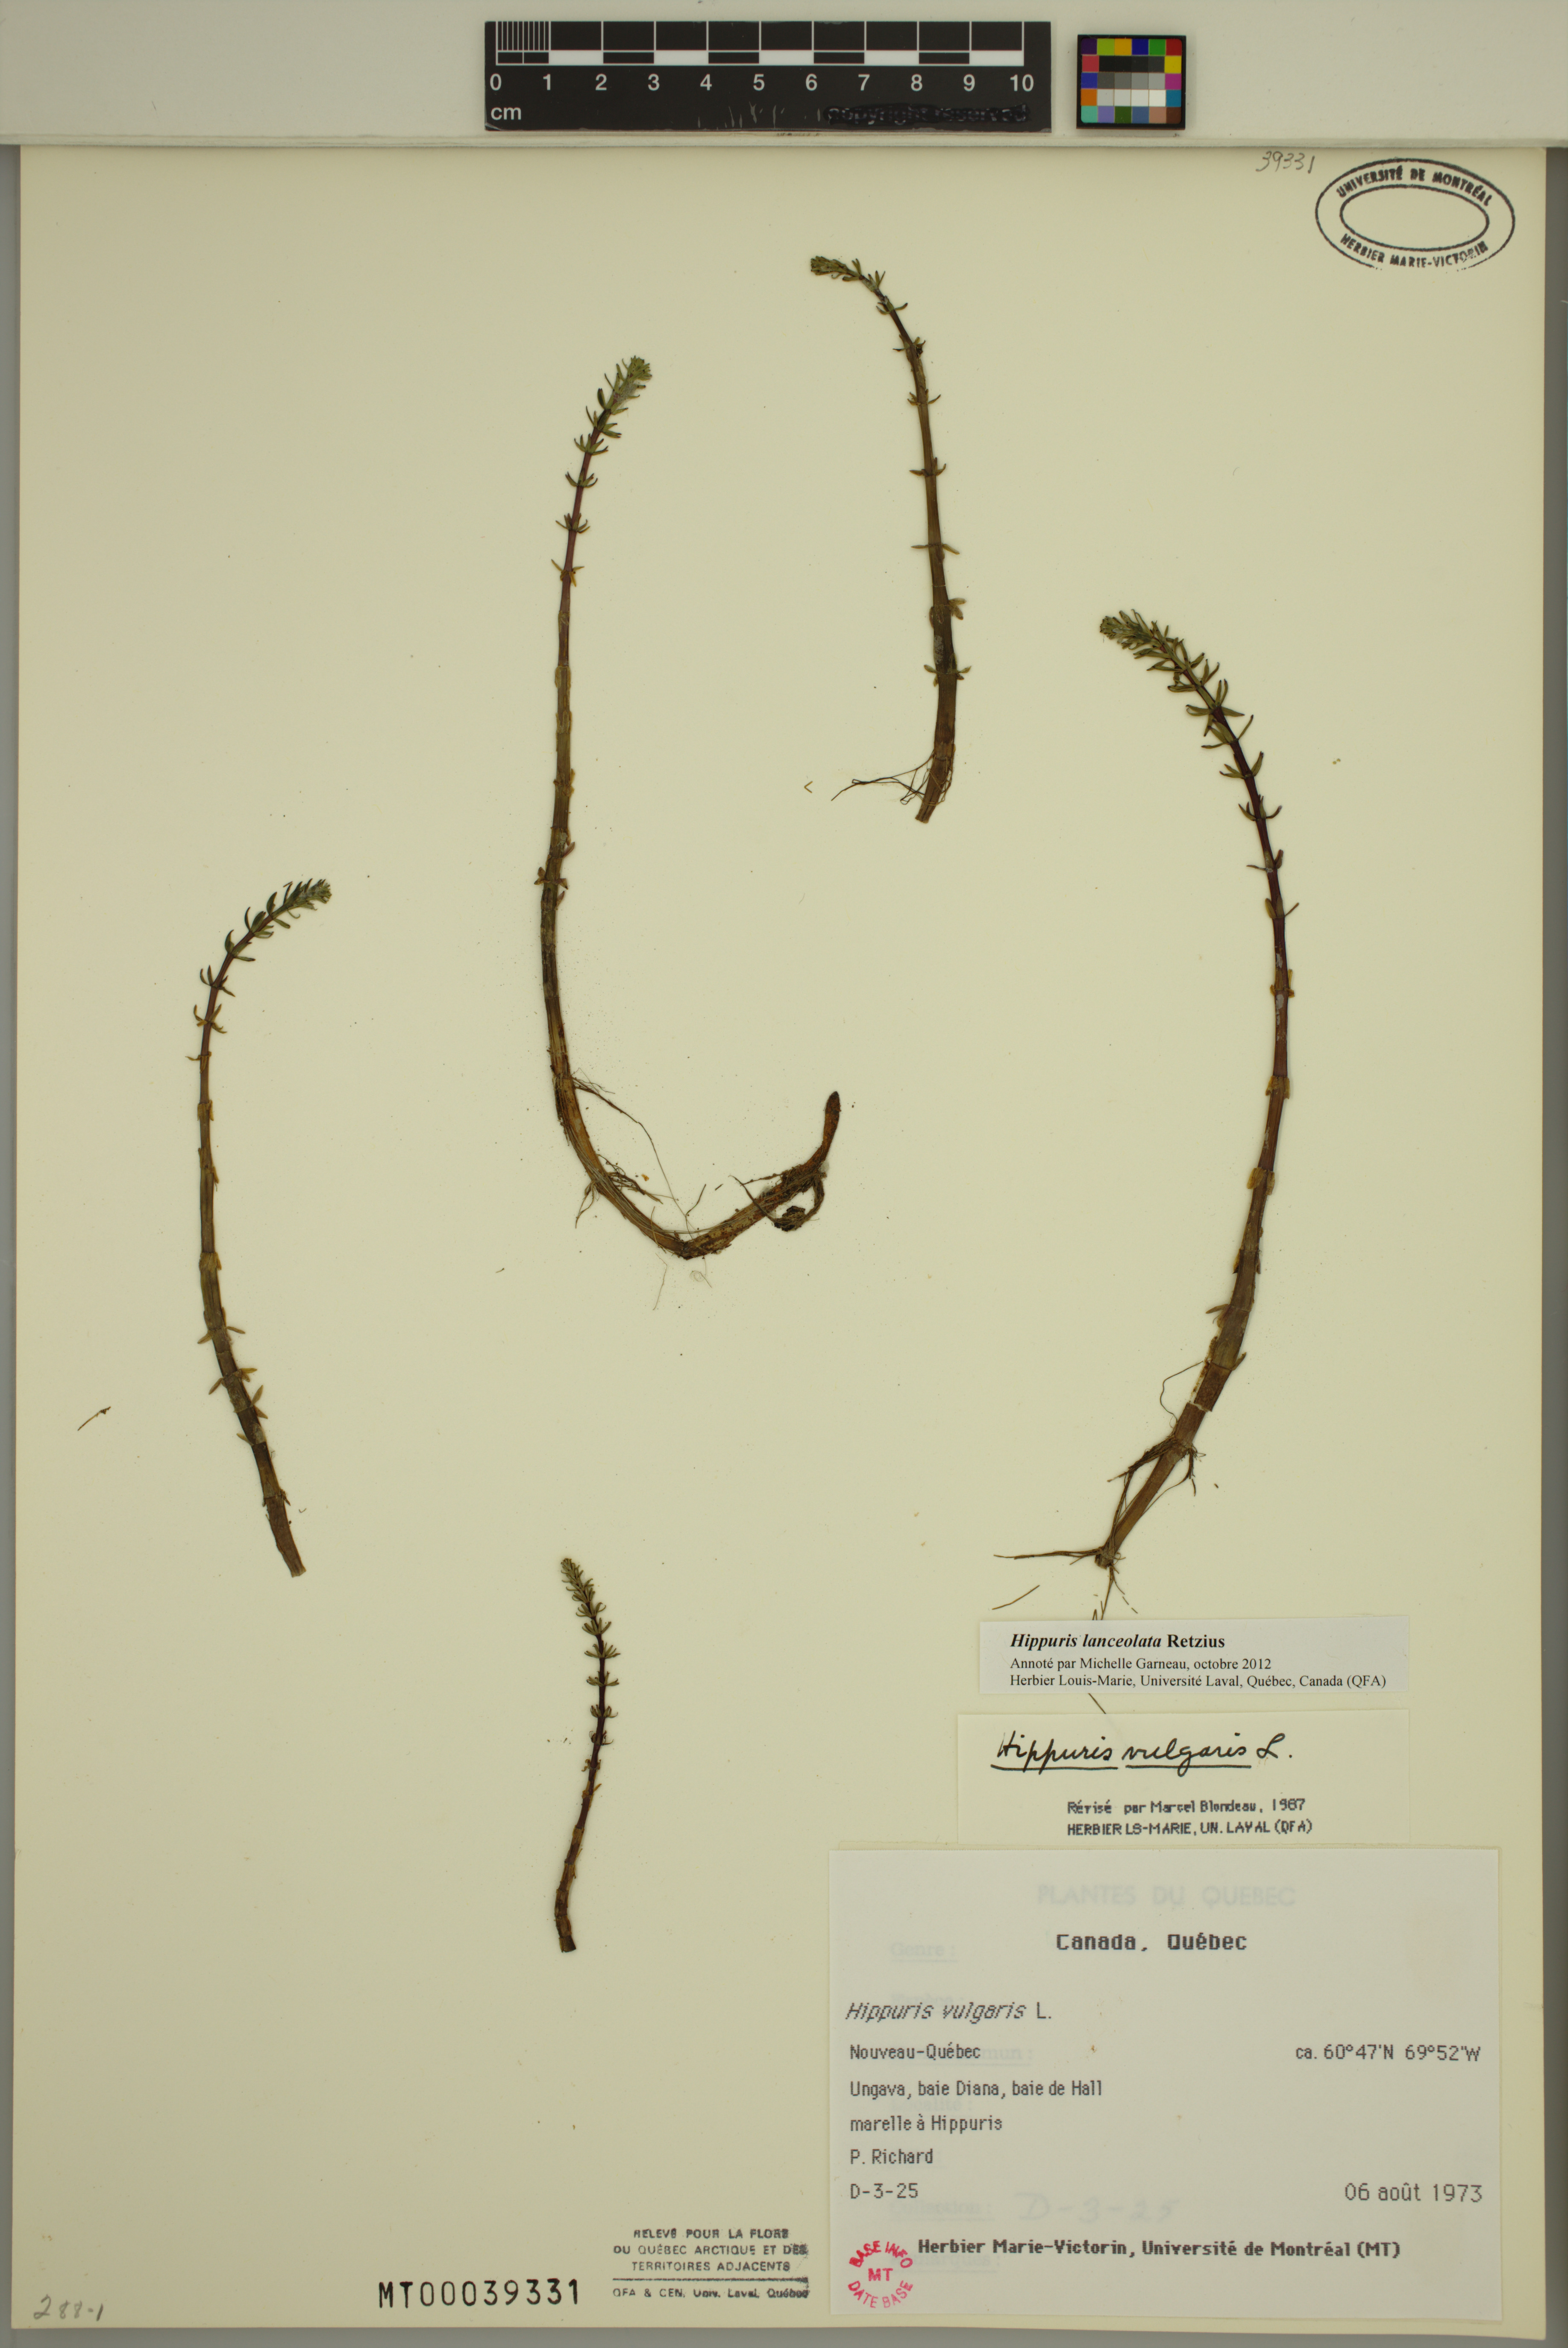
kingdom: Plantae
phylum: Tracheophyta
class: Magnoliopsida
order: Lamiales
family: Plantaginaceae
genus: Hippuris
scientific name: Hippuris lanceolata
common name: Lance-leaved mare's-tail
